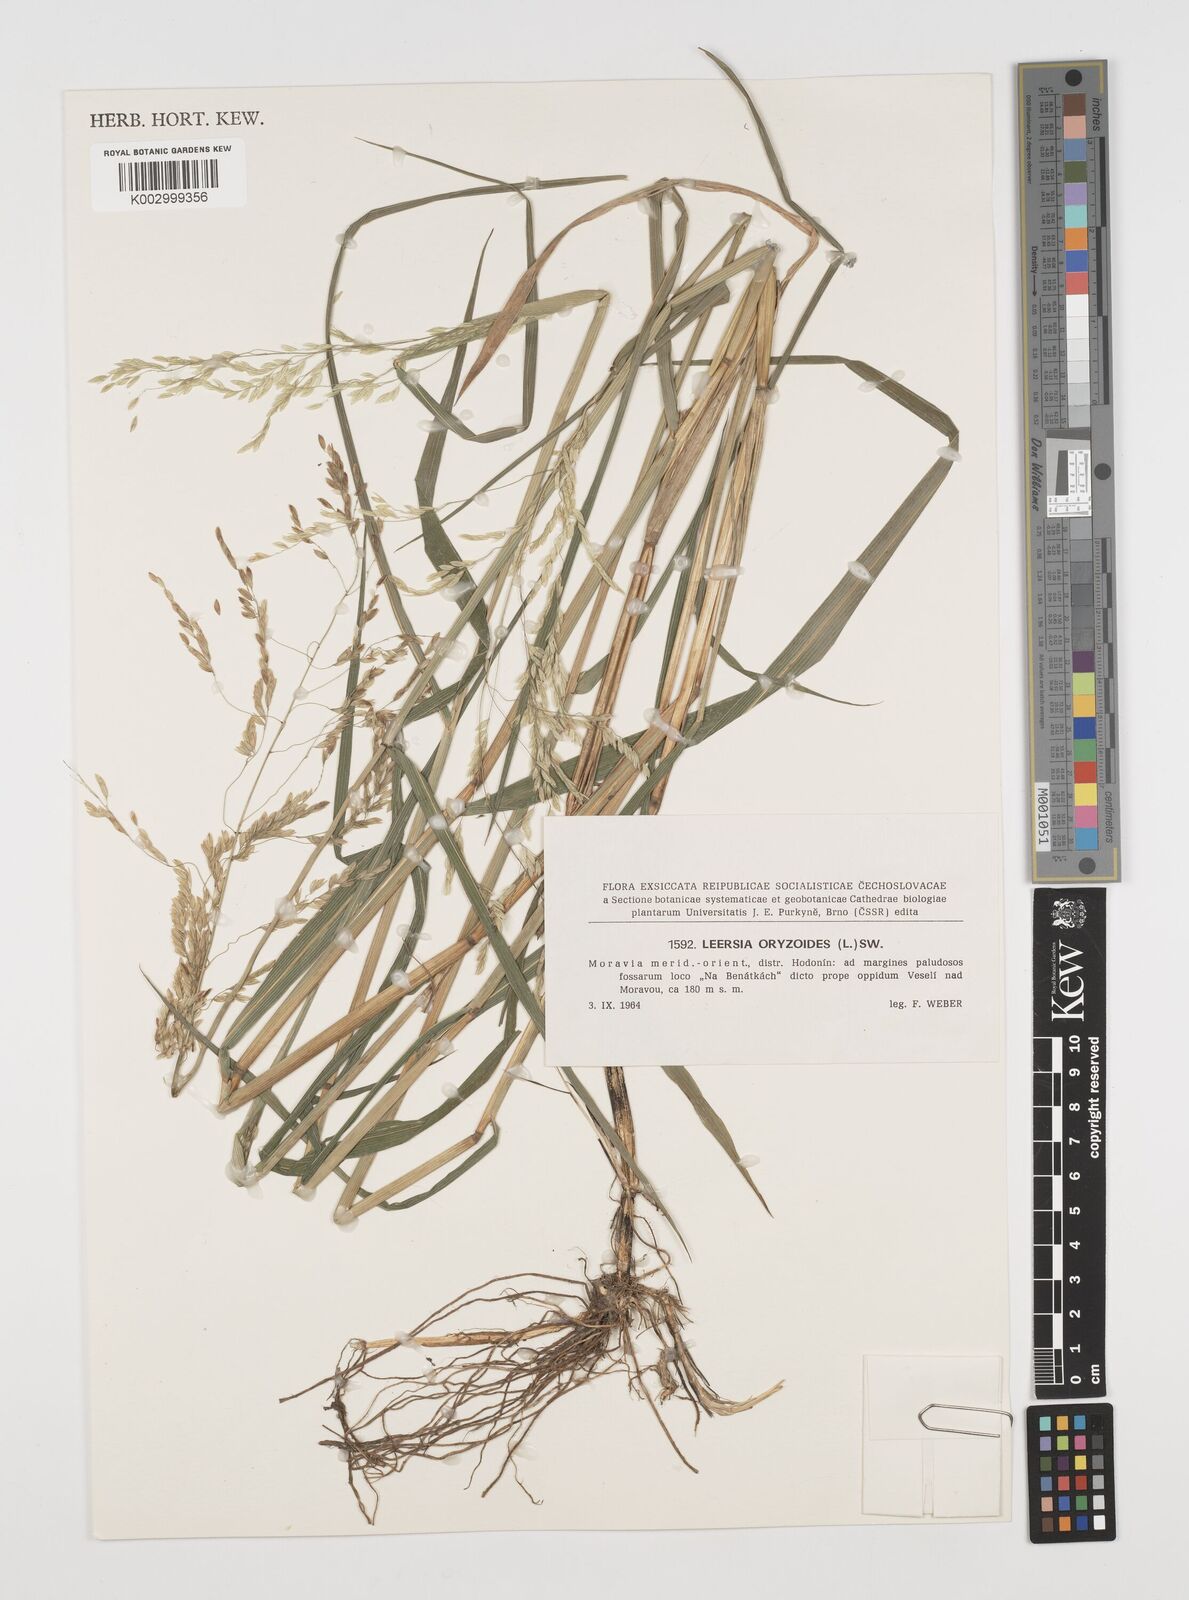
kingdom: Plantae
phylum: Tracheophyta
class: Liliopsida
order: Poales
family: Poaceae
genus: Leersia
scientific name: Leersia oryzoides
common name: Cut-grass
